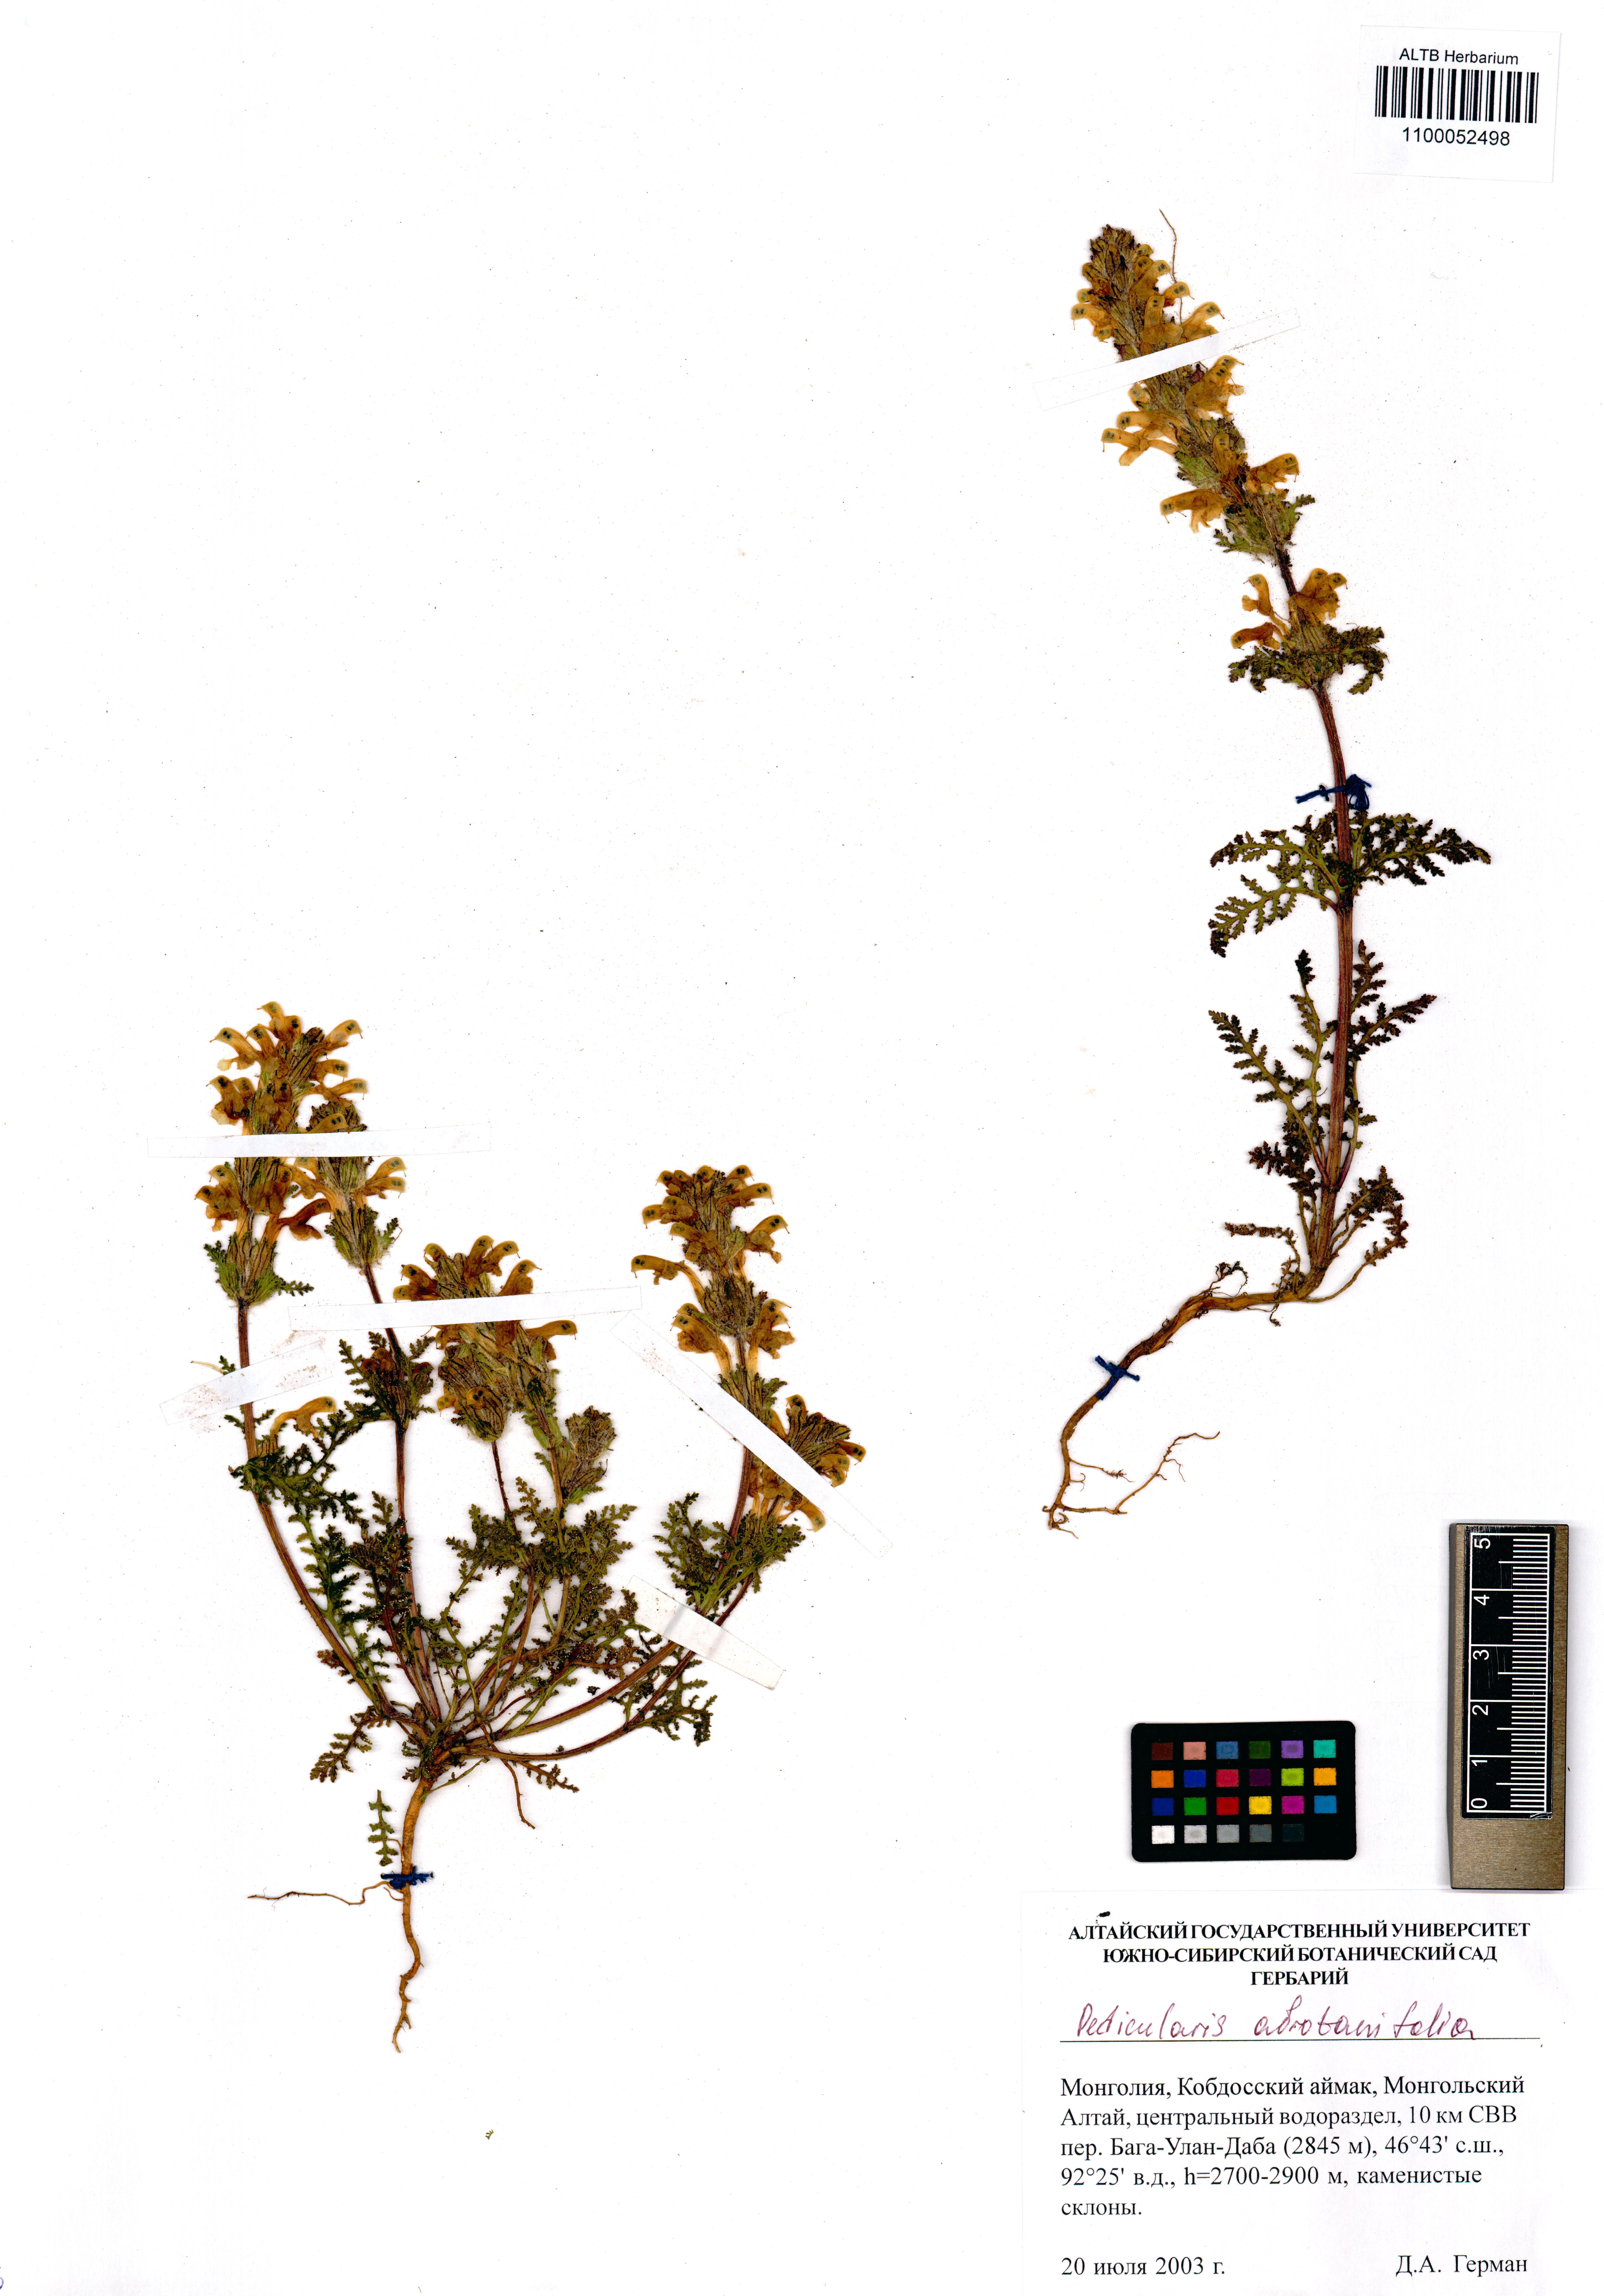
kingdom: Plantae
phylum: Tracheophyta
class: Magnoliopsida
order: Lamiales
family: Orobanchaceae
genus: Pedicularis
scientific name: Pedicularis abrotanifolia
